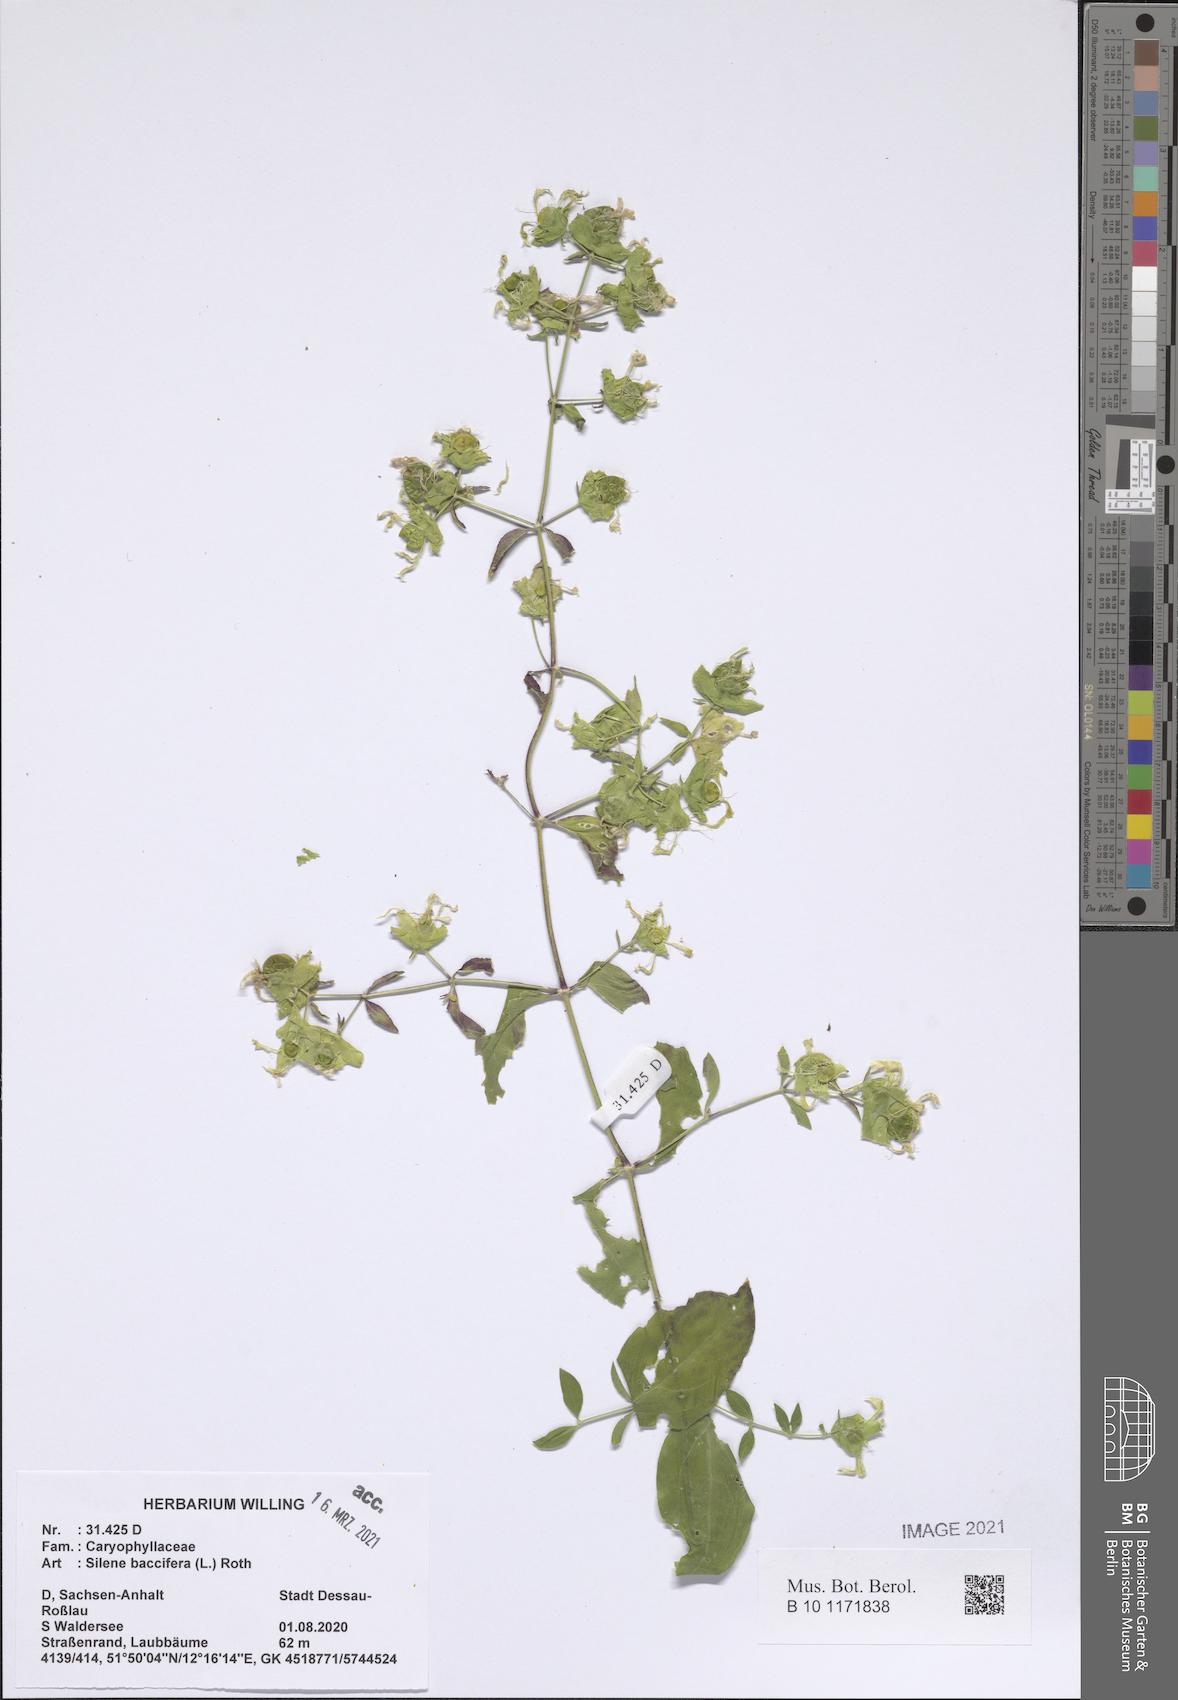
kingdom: Plantae
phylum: Tracheophyta
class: Magnoliopsida
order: Caryophyllales
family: Caryophyllaceae
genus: Silene
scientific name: Silene baccifera
